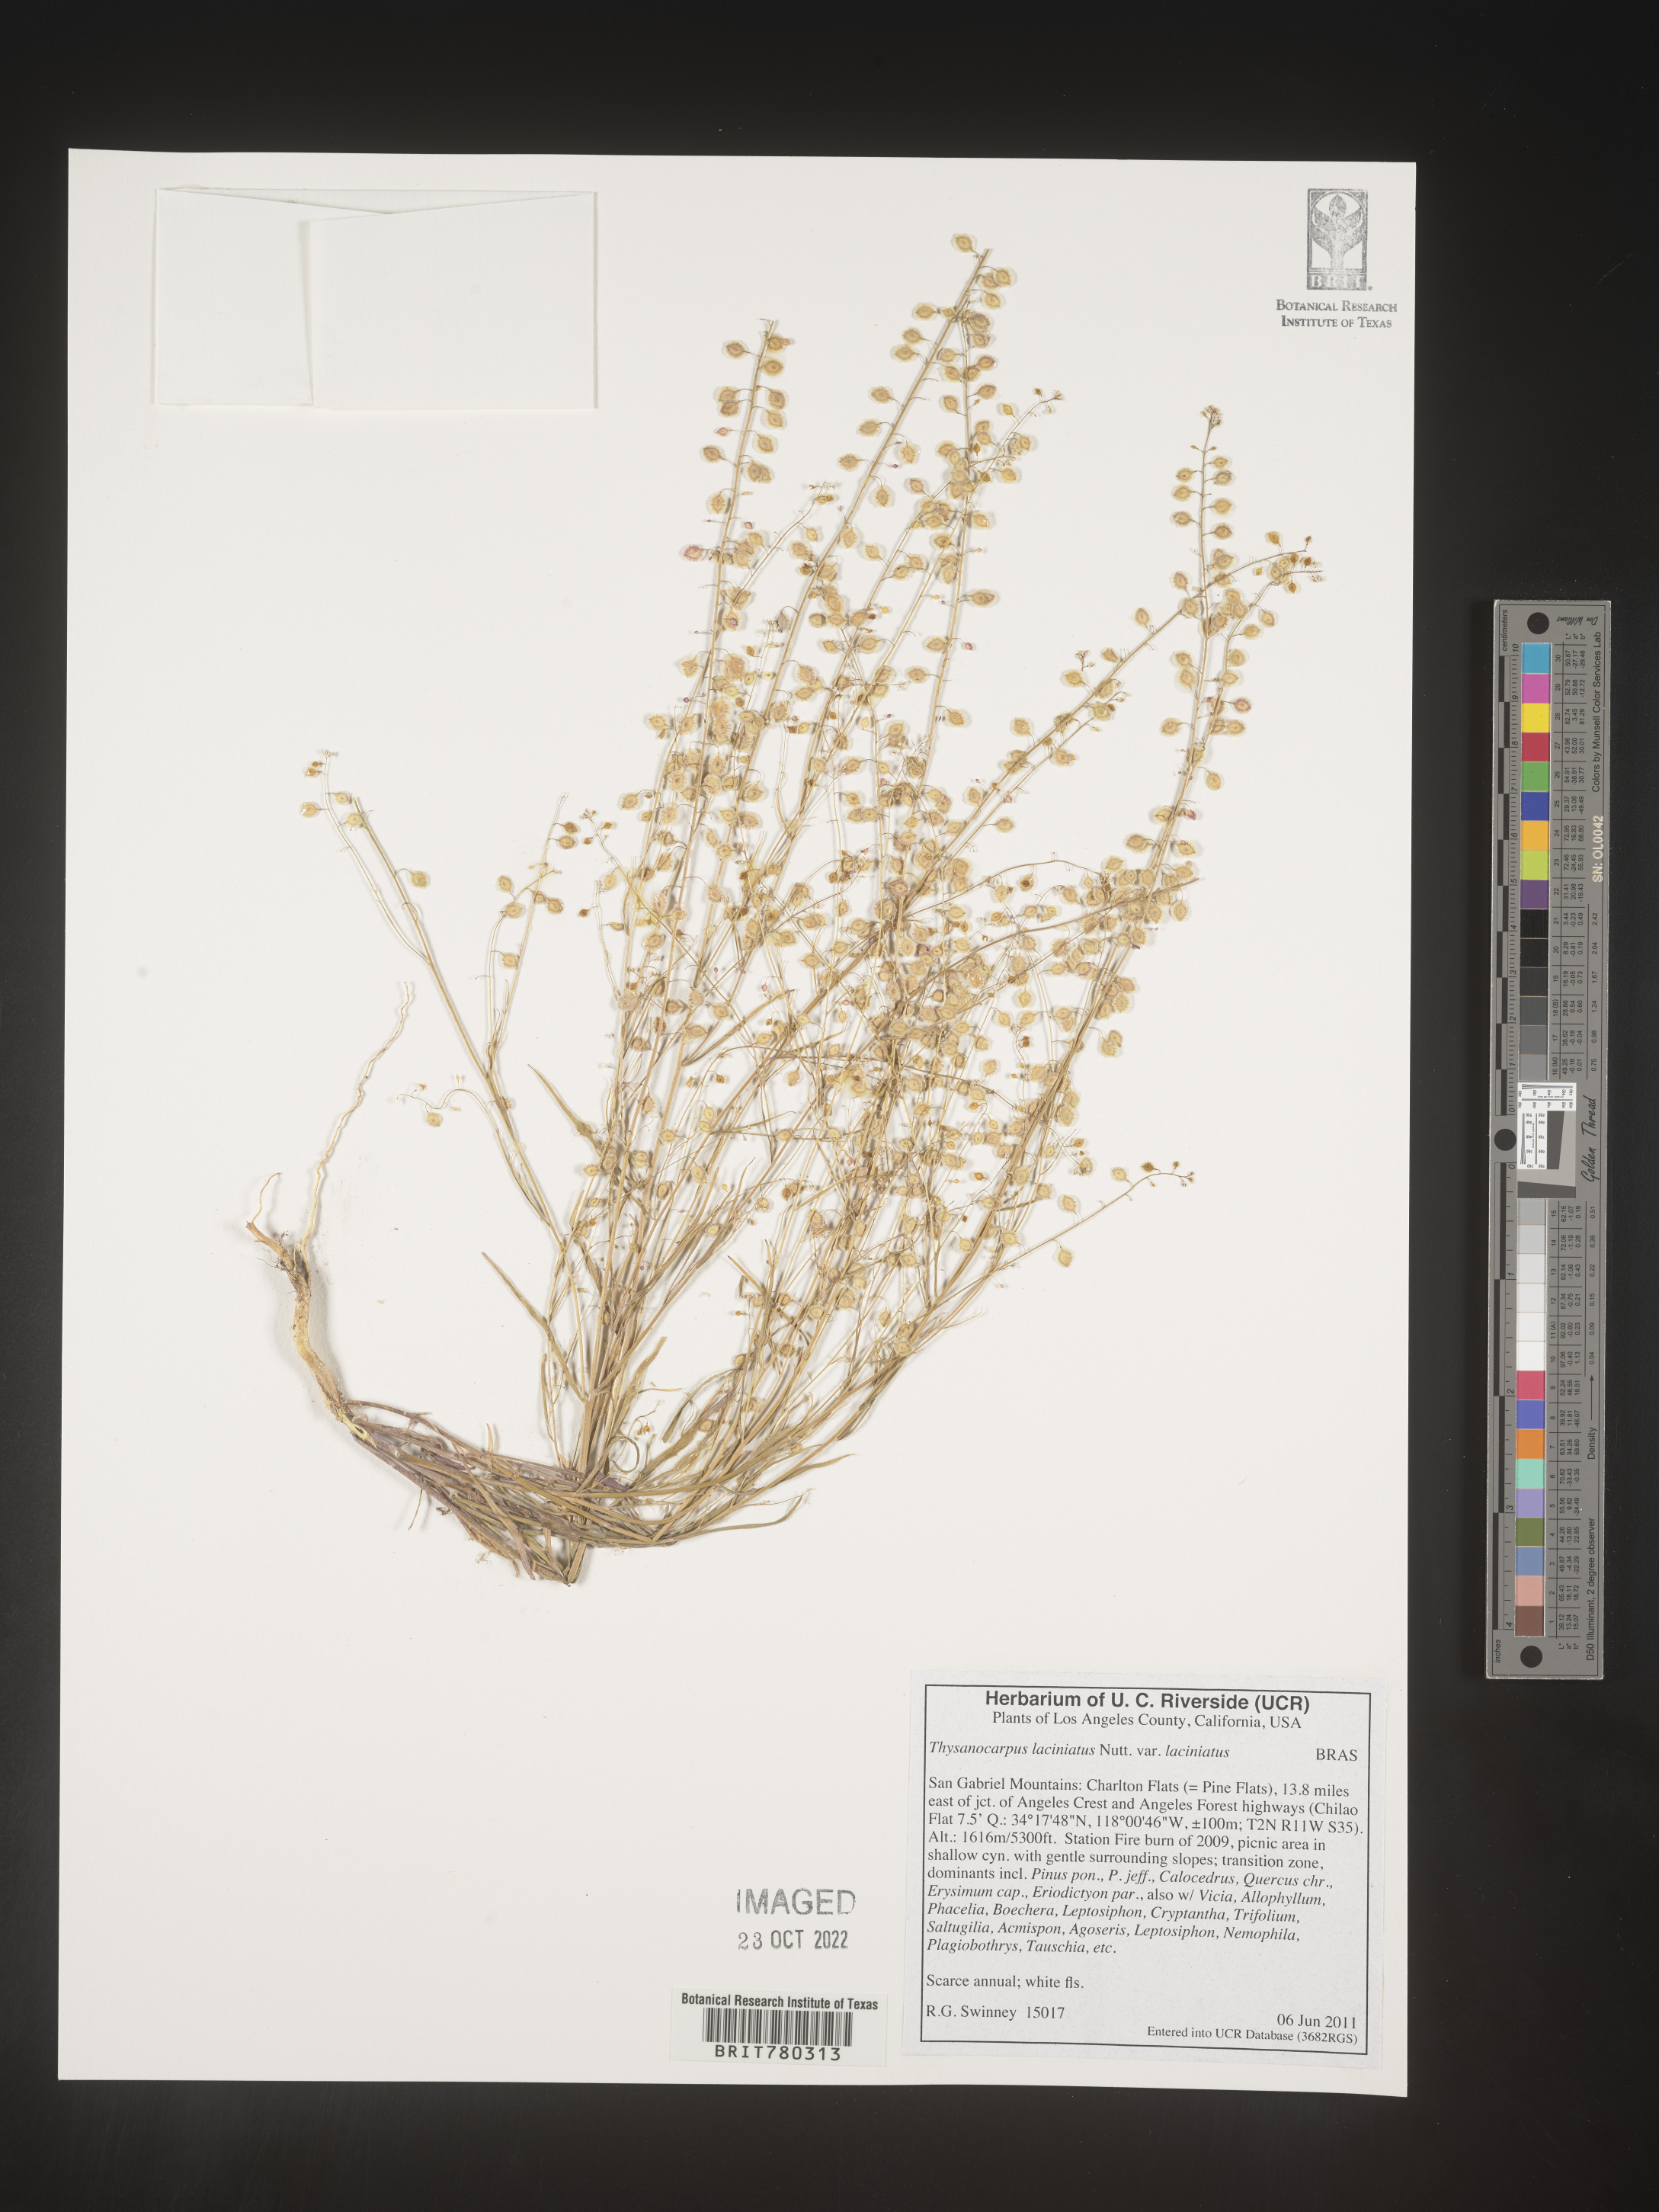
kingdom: Plantae
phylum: Tracheophyta
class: Magnoliopsida
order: Brassicales
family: Brassicaceae
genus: Thysanocarpus
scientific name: Thysanocarpus
